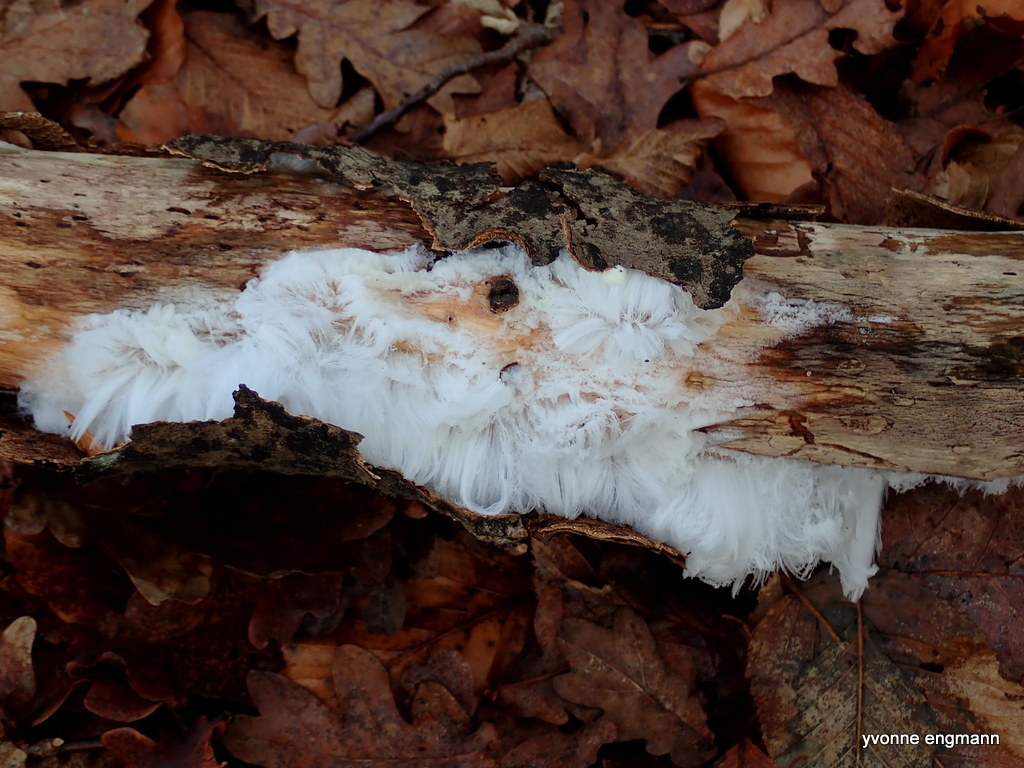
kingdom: Fungi
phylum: Basidiomycota
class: Tremellomycetes
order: Tremellales
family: Exidiaceae
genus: Exidiopsis
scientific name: Exidiopsis effusa
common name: smuk bævrehinde
